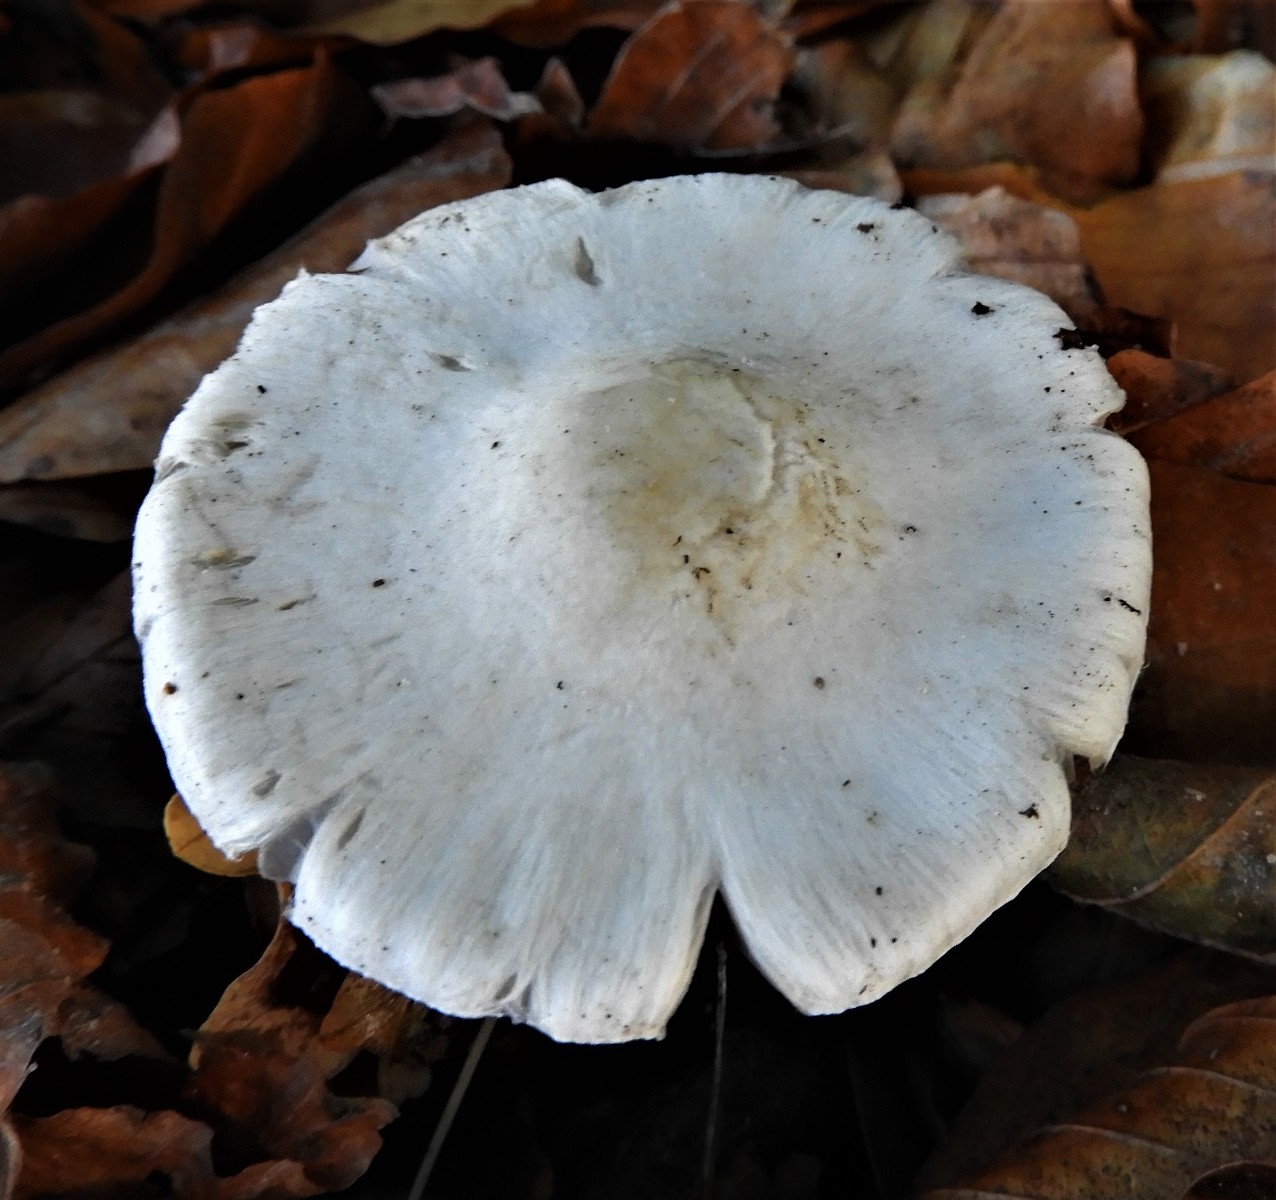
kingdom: Fungi
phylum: Basidiomycota
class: Agaricomycetes
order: Agaricales
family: Tricholomataceae
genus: Tricholoma
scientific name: Tricholoma
